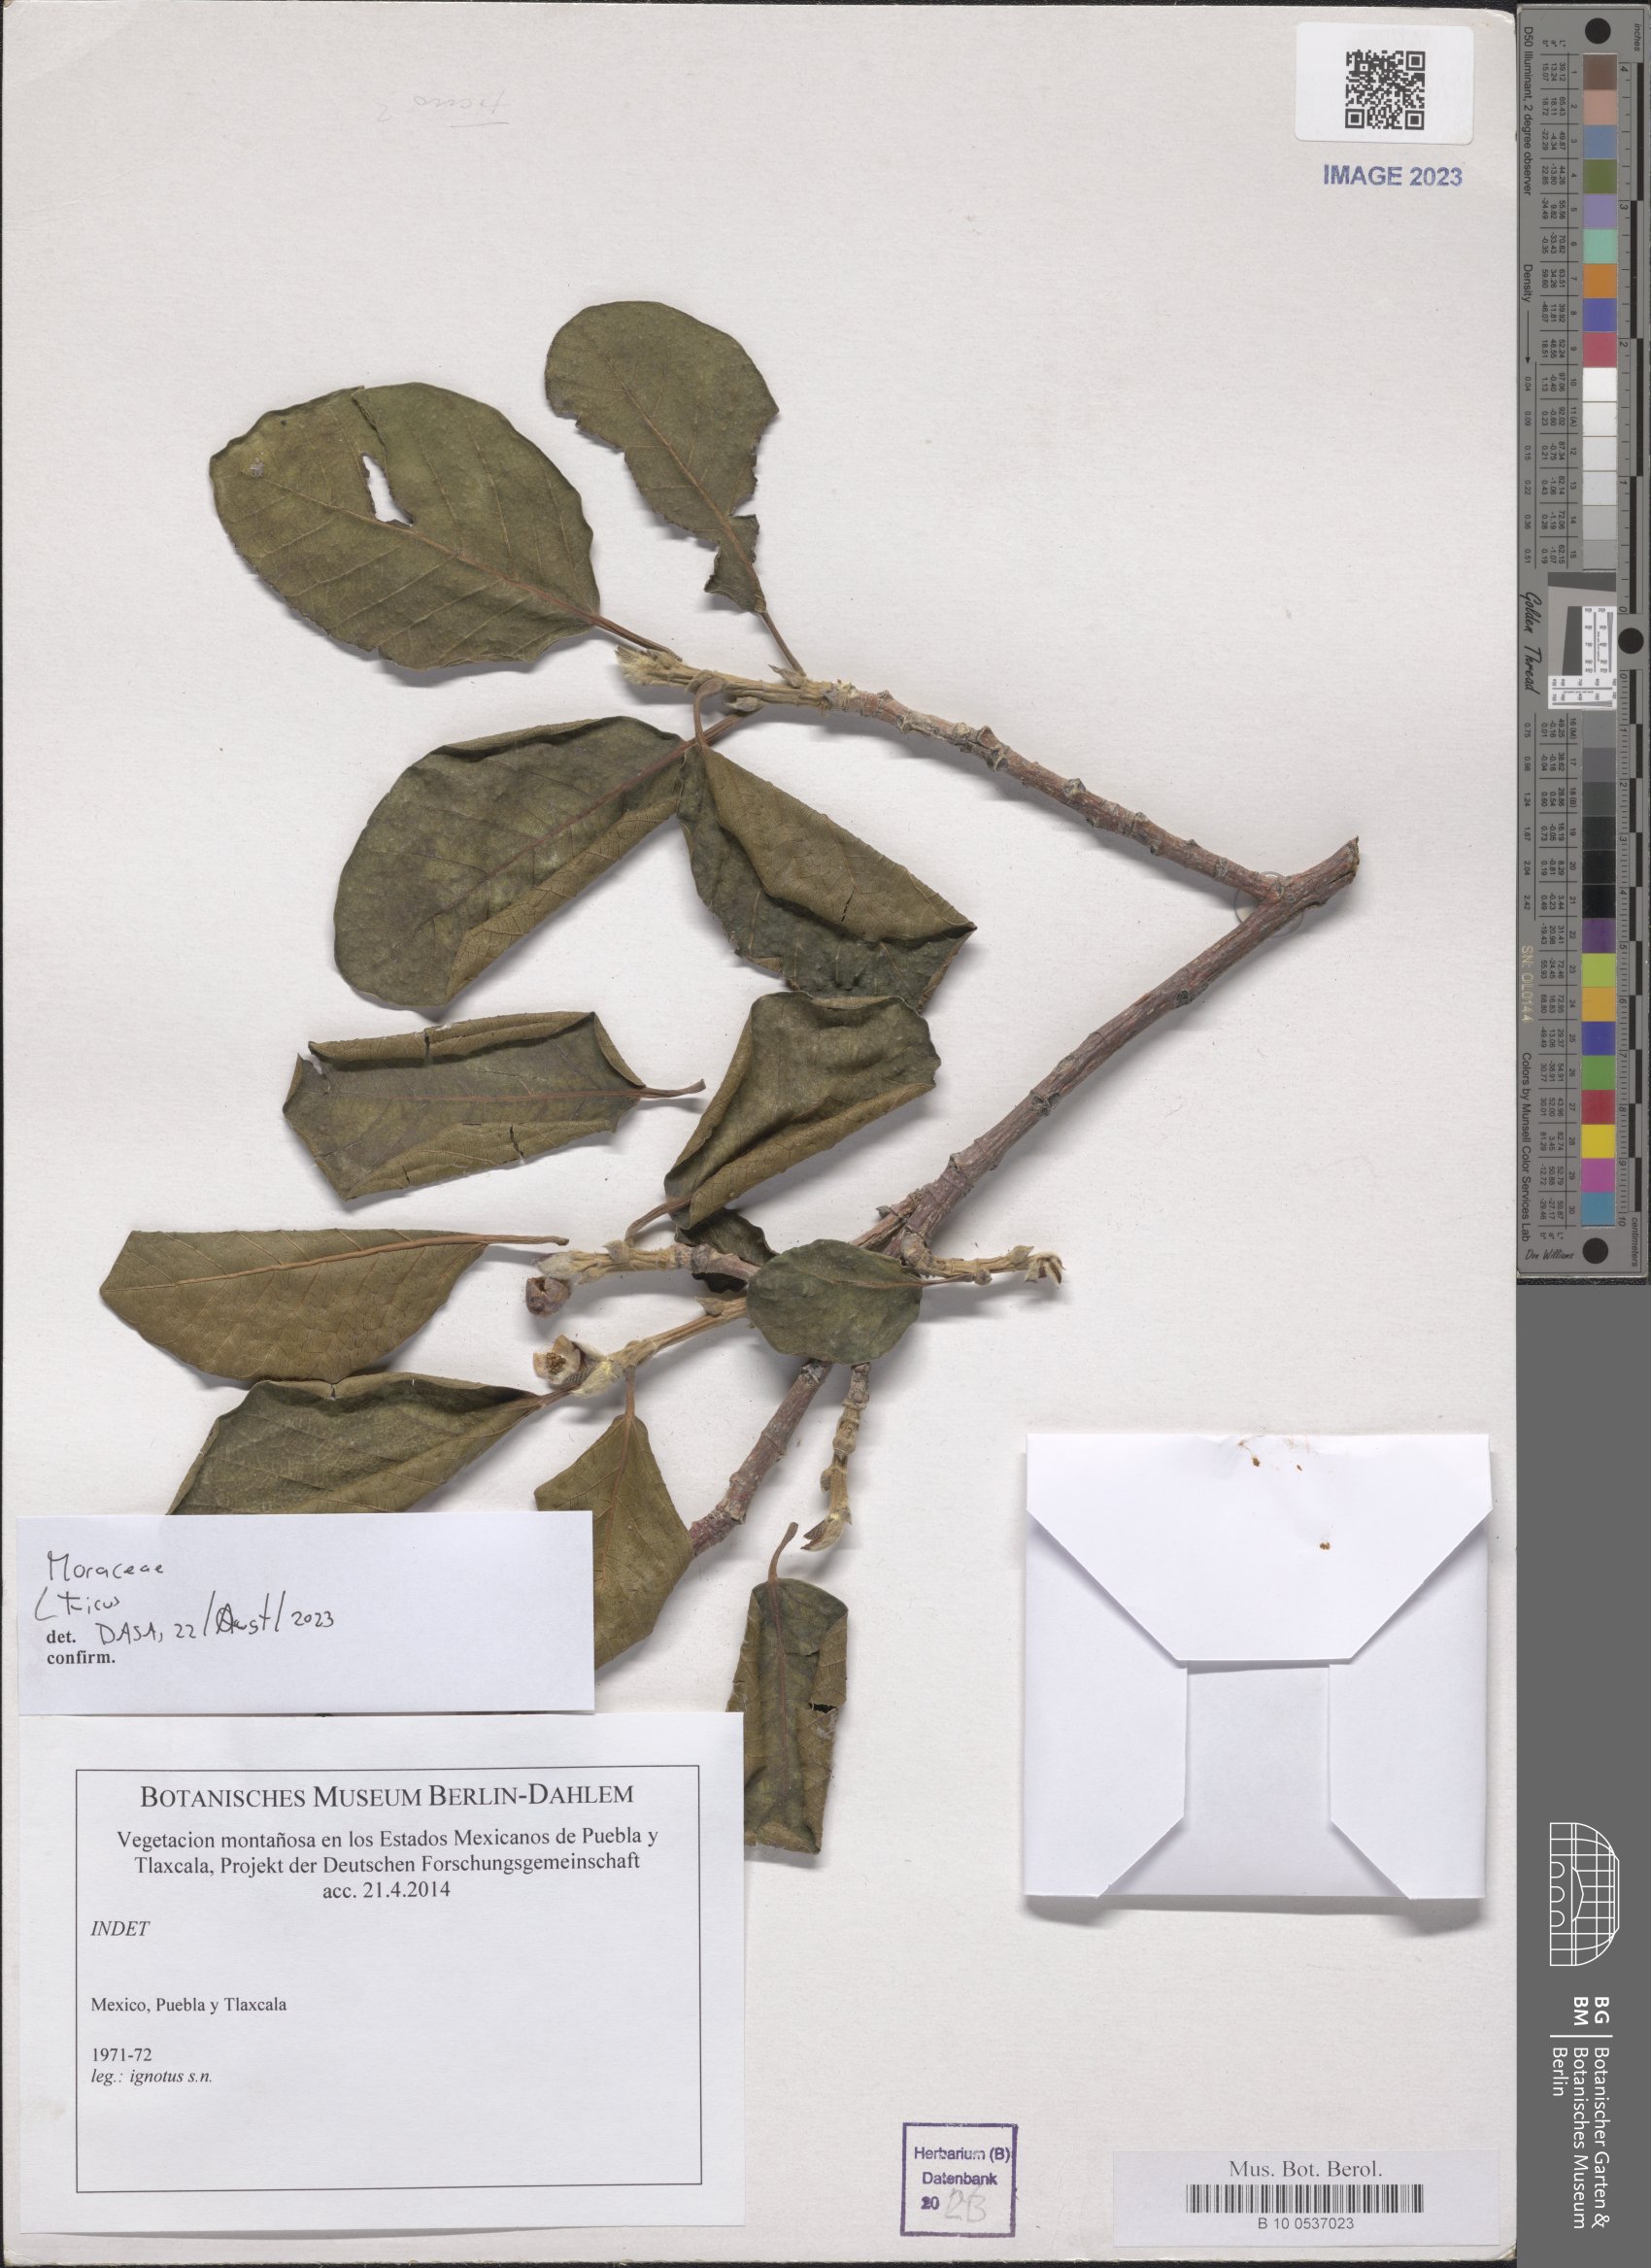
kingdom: Plantae
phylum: Tracheophyta
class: Magnoliopsida
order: Rosales
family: Moraceae
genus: Ficus
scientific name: Ficus
